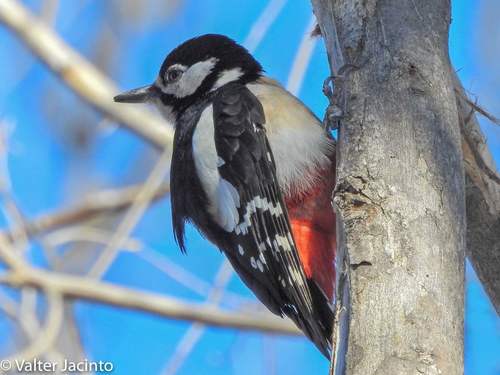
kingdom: Animalia
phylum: Chordata
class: Aves
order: Piciformes
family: Picidae
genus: Dendrocopos
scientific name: Dendrocopos major
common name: Great spotted woodpecker
